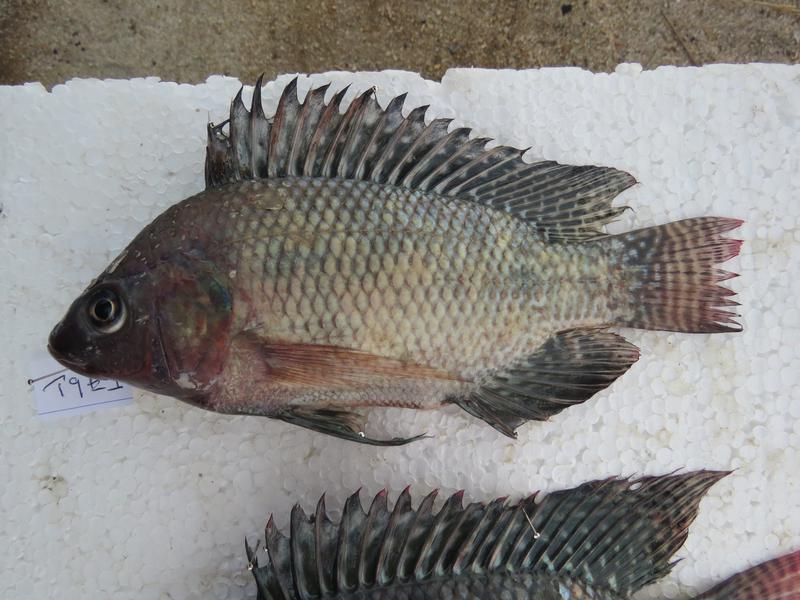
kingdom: Animalia
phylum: Chordata
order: Perciformes
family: Cichlidae
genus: Oreochromis
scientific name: Oreochromis niloticus
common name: Nile tilapia
